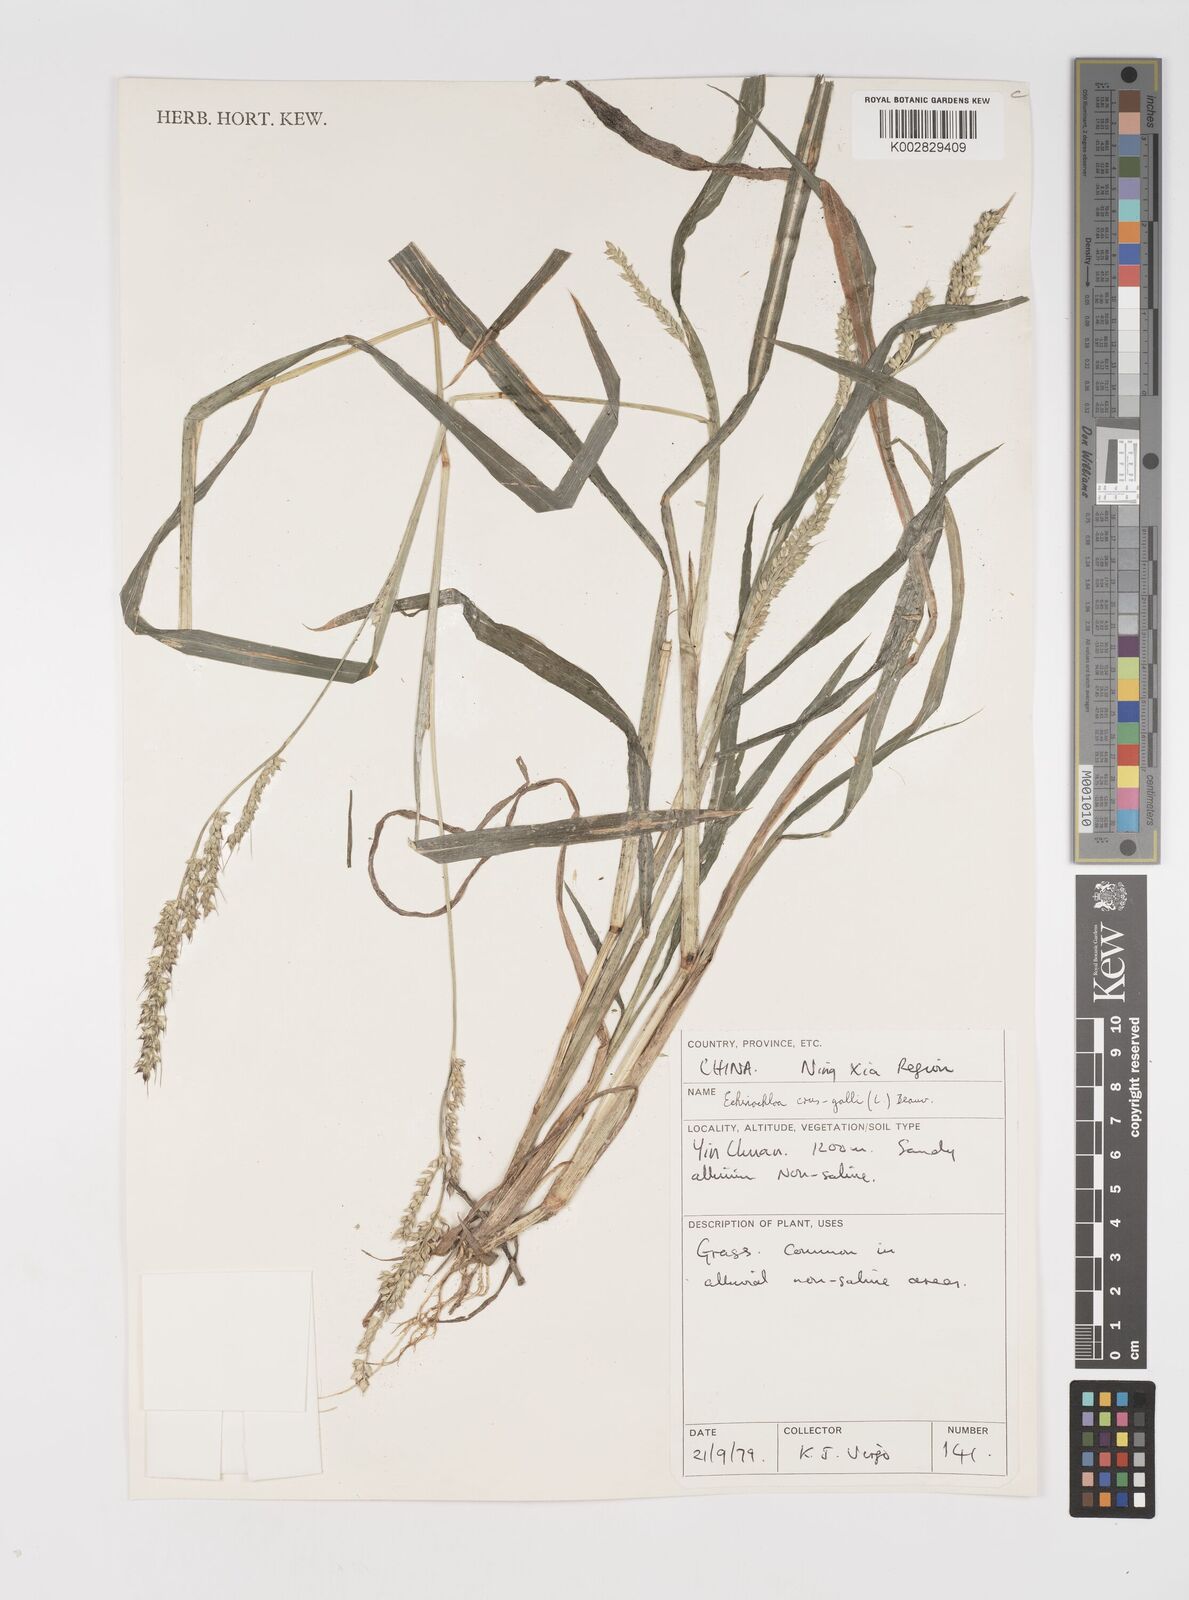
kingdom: Plantae
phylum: Tracheophyta
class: Liliopsida
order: Poales
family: Poaceae
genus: Echinochloa
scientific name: Echinochloa crus-galli
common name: Cockspur
